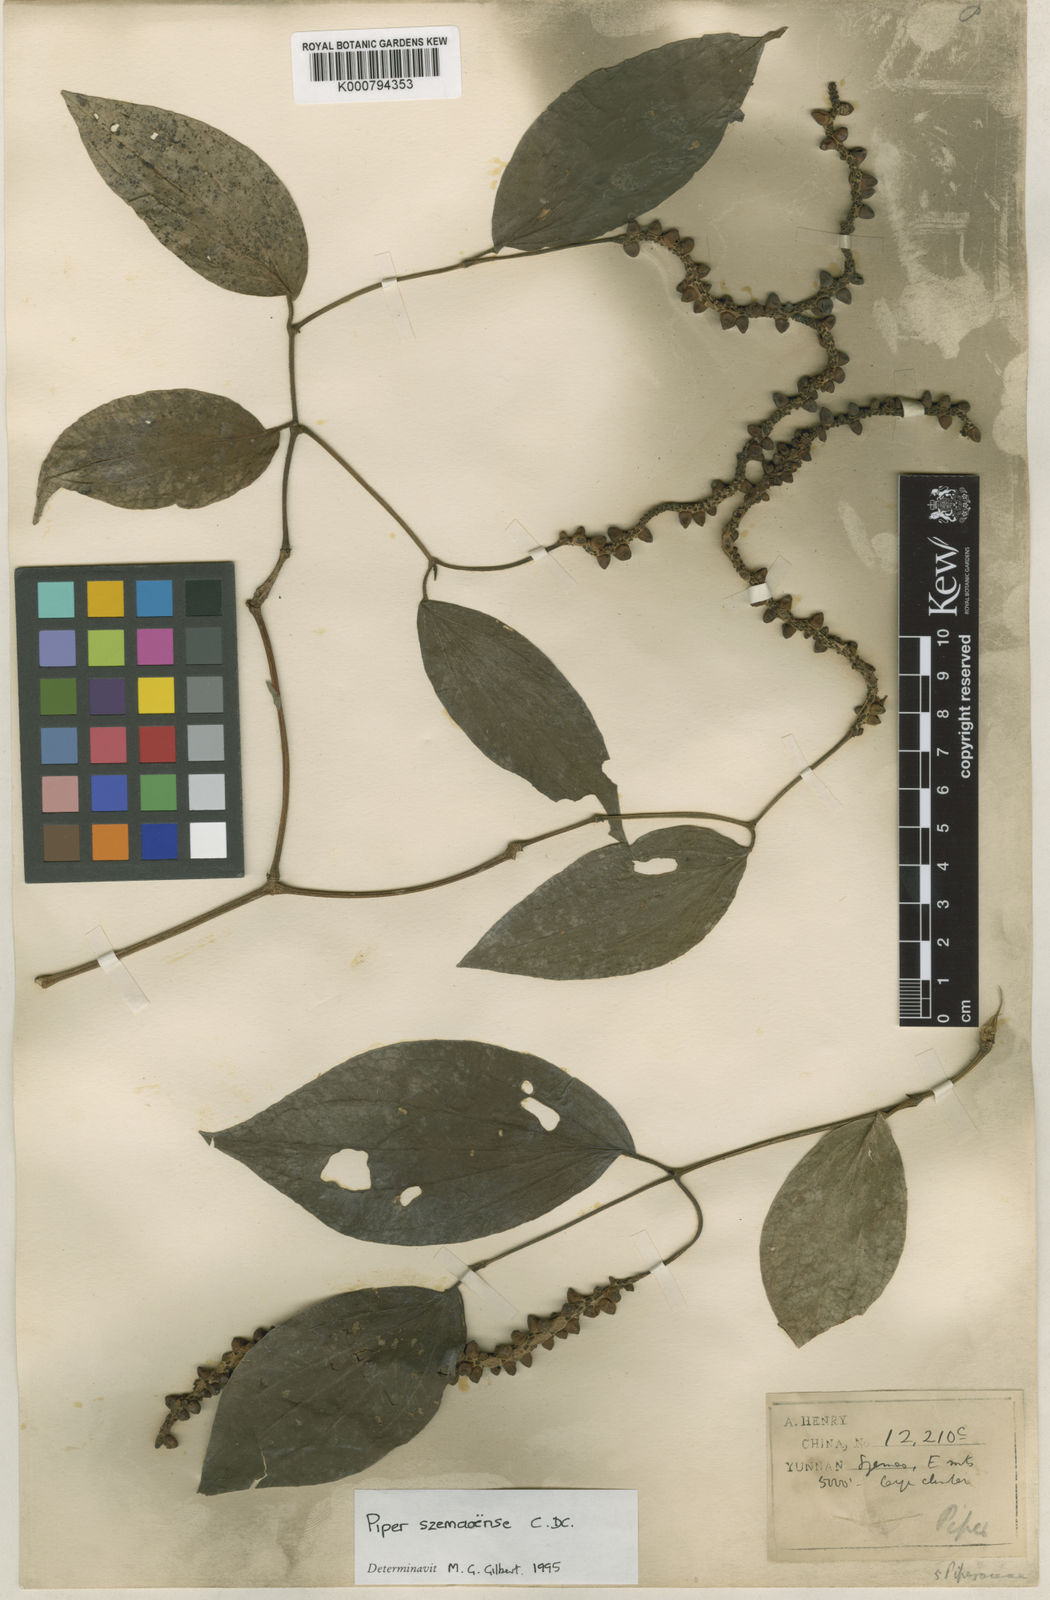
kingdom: Plantae
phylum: Tracheophyta
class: Magnoliopsida
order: Piperales
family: Piperaceae
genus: Piper
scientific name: Piper macropodum
